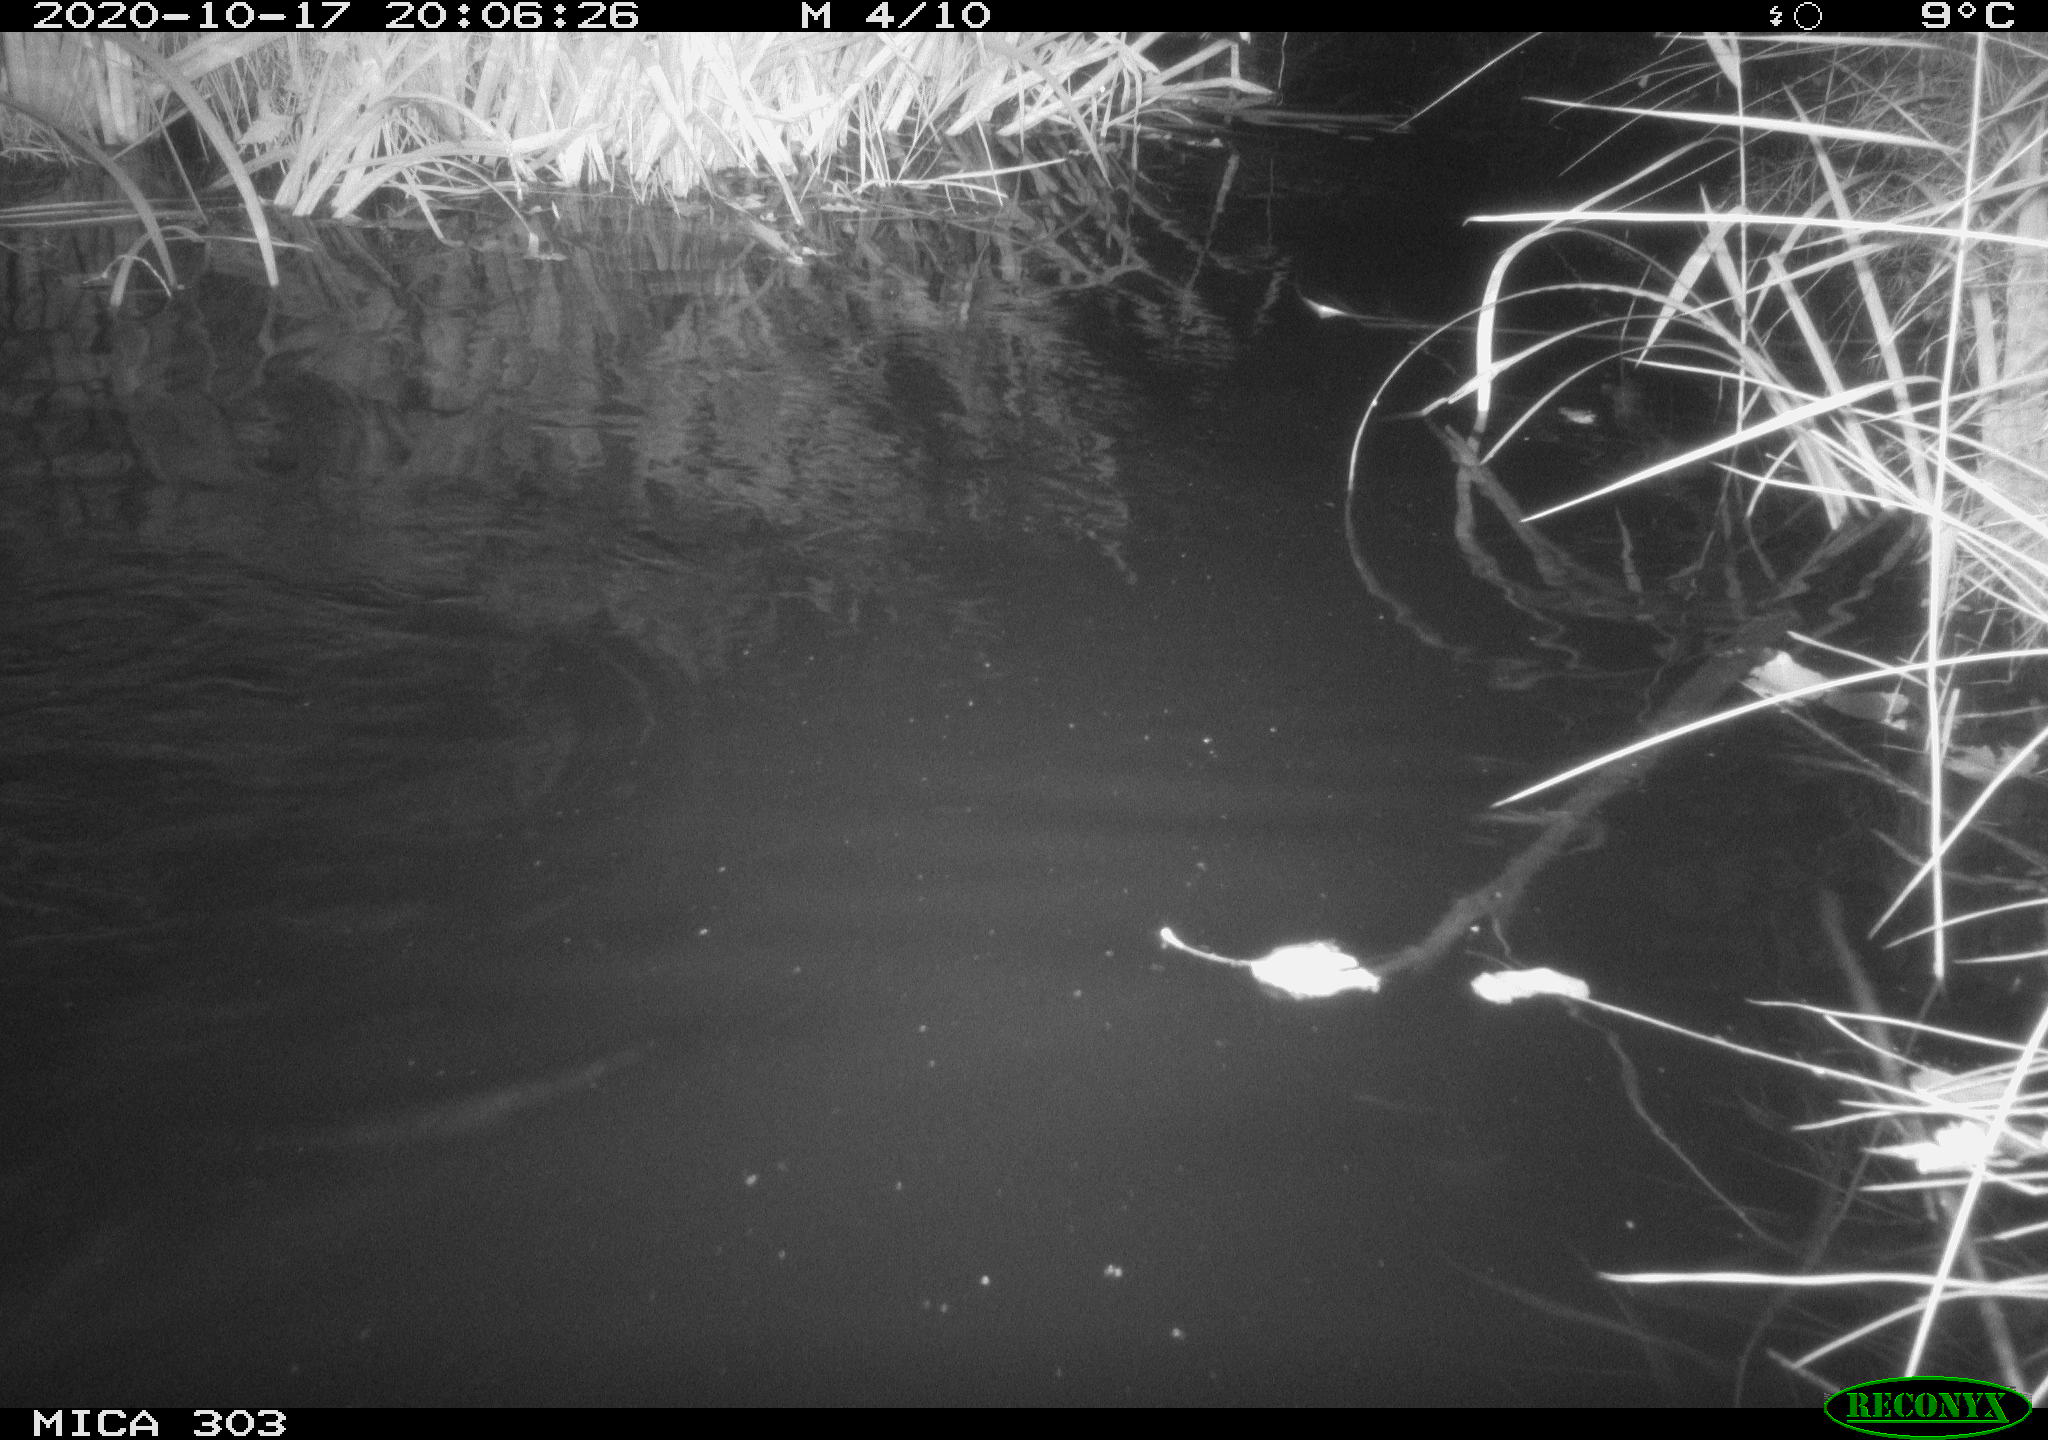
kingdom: Animalia
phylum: Chordata
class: Mammalia
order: Rodentia
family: Castoridae
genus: Castor
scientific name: Castor fiber
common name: Eurasian beaver
